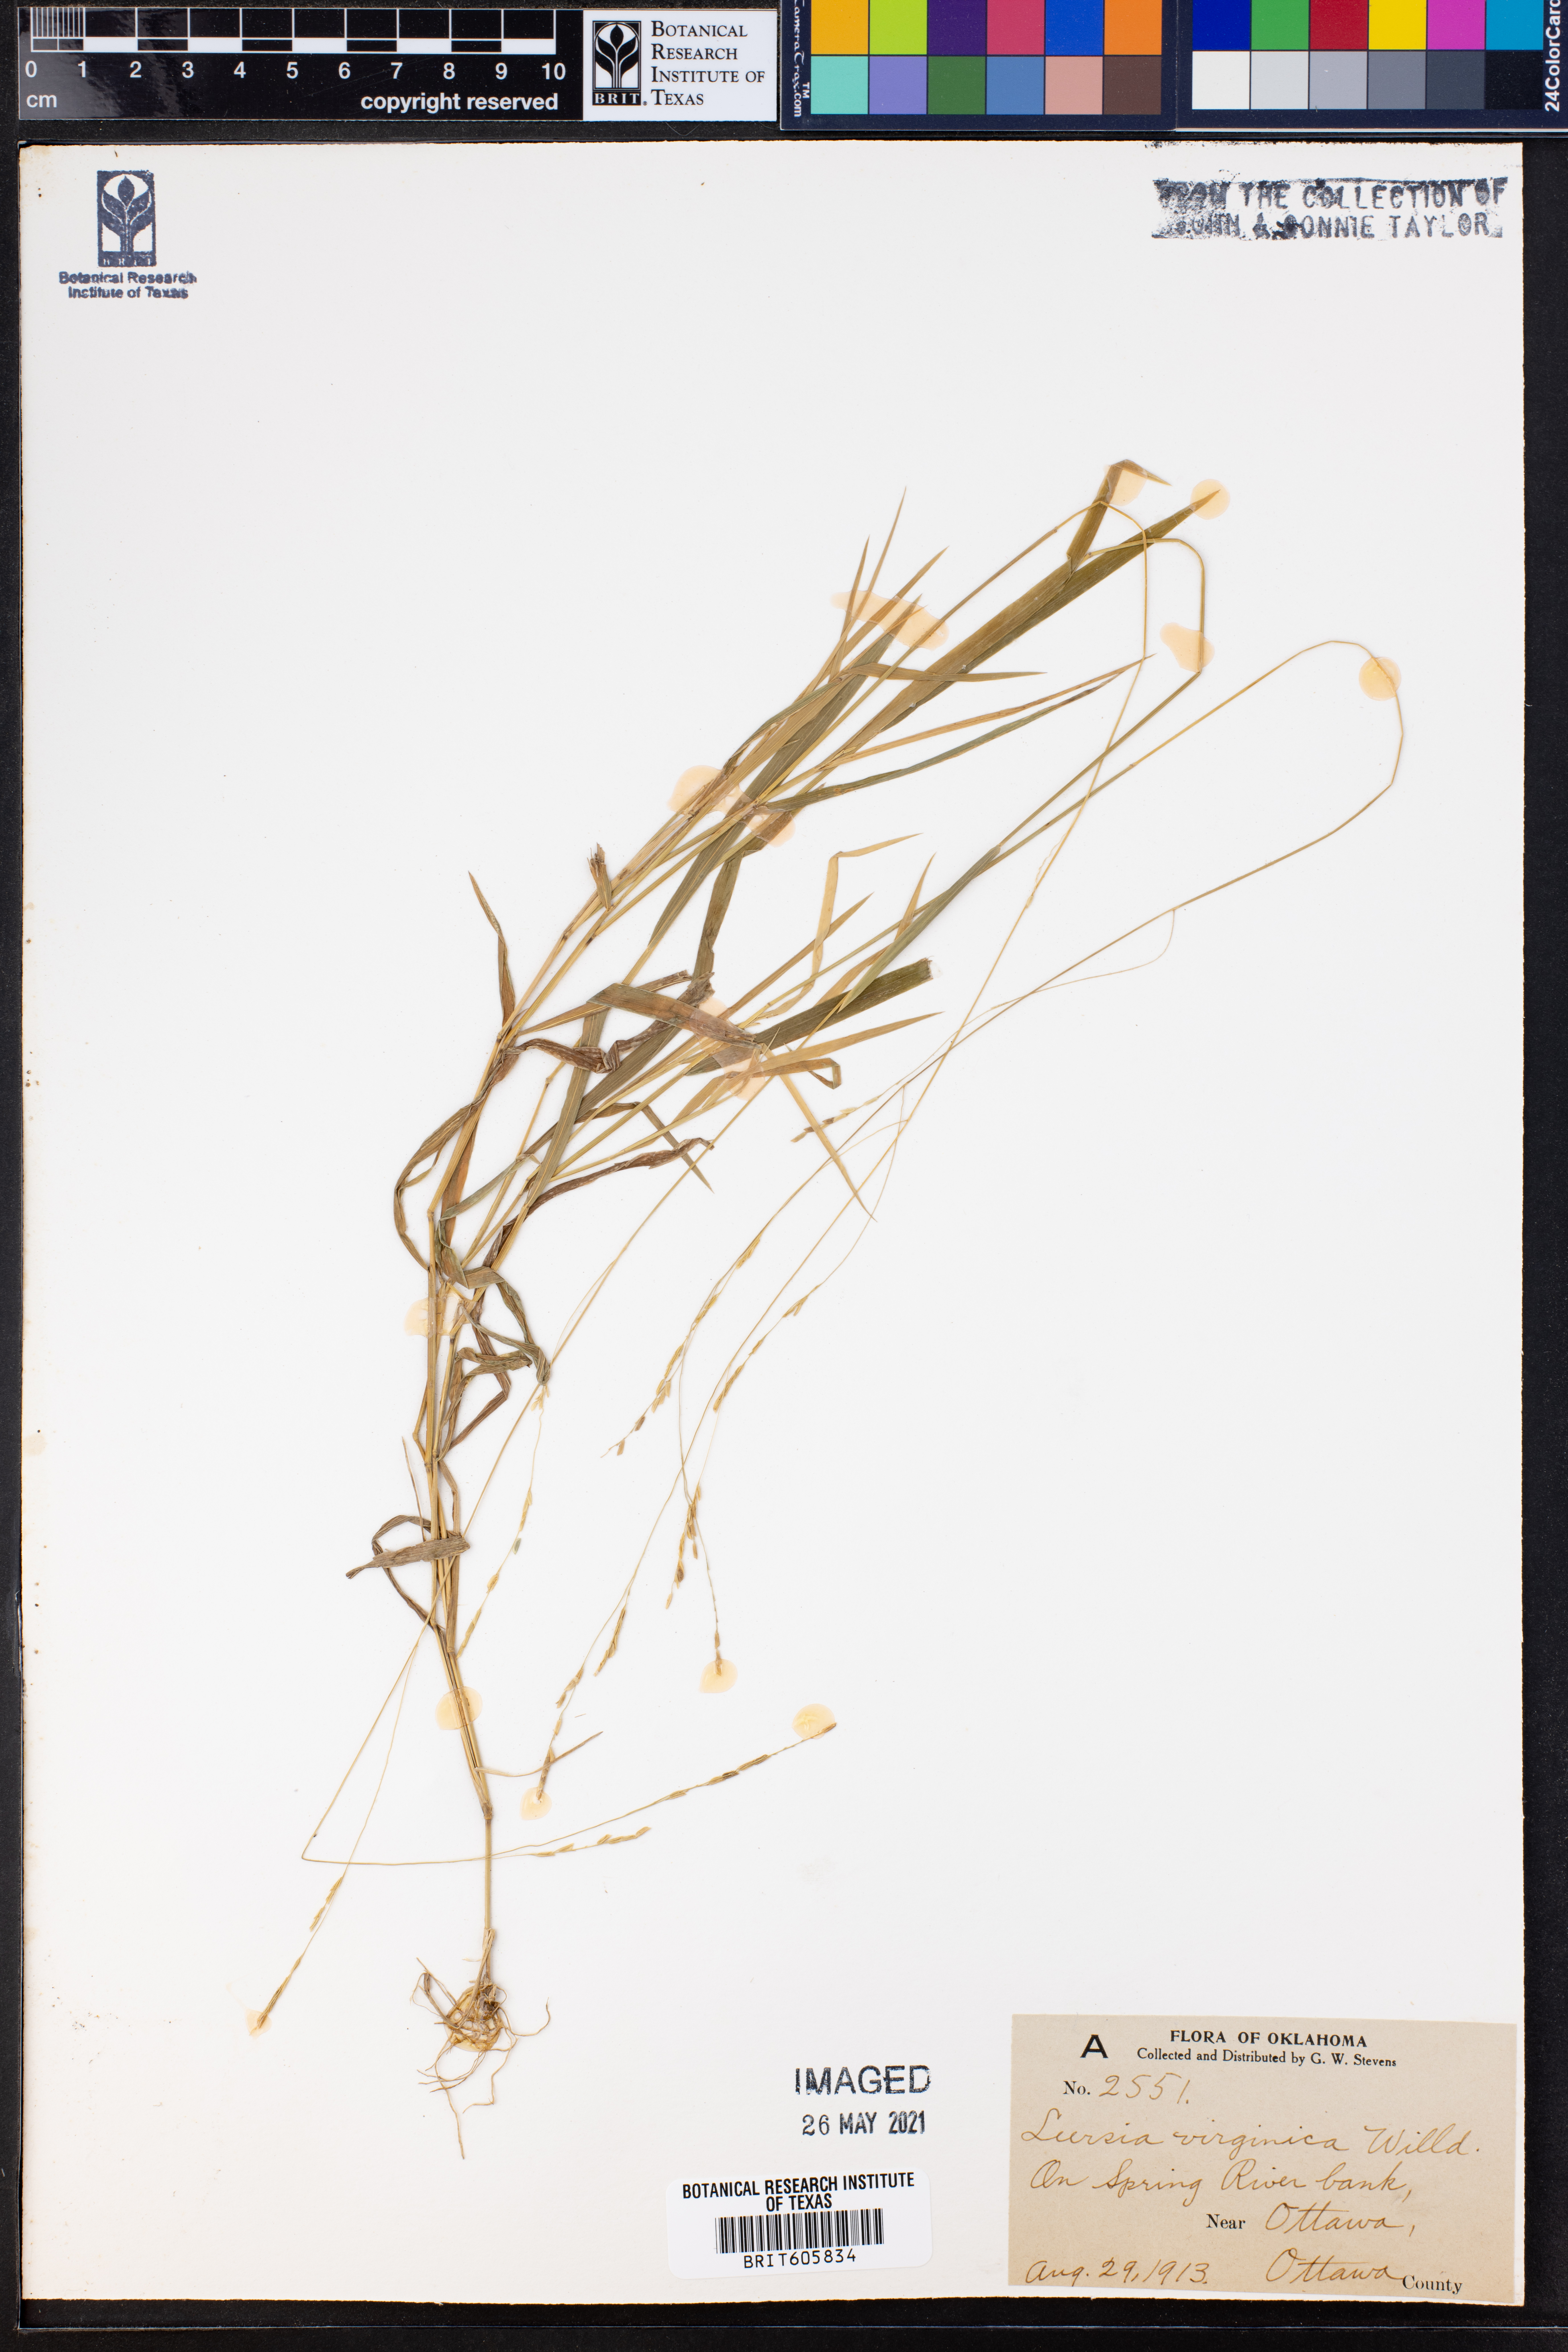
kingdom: Plantae
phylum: Tracheophyta
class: Liliopsida
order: Poales
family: Poaceae
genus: Leersia
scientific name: Leersia virginica
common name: White cutgrass
